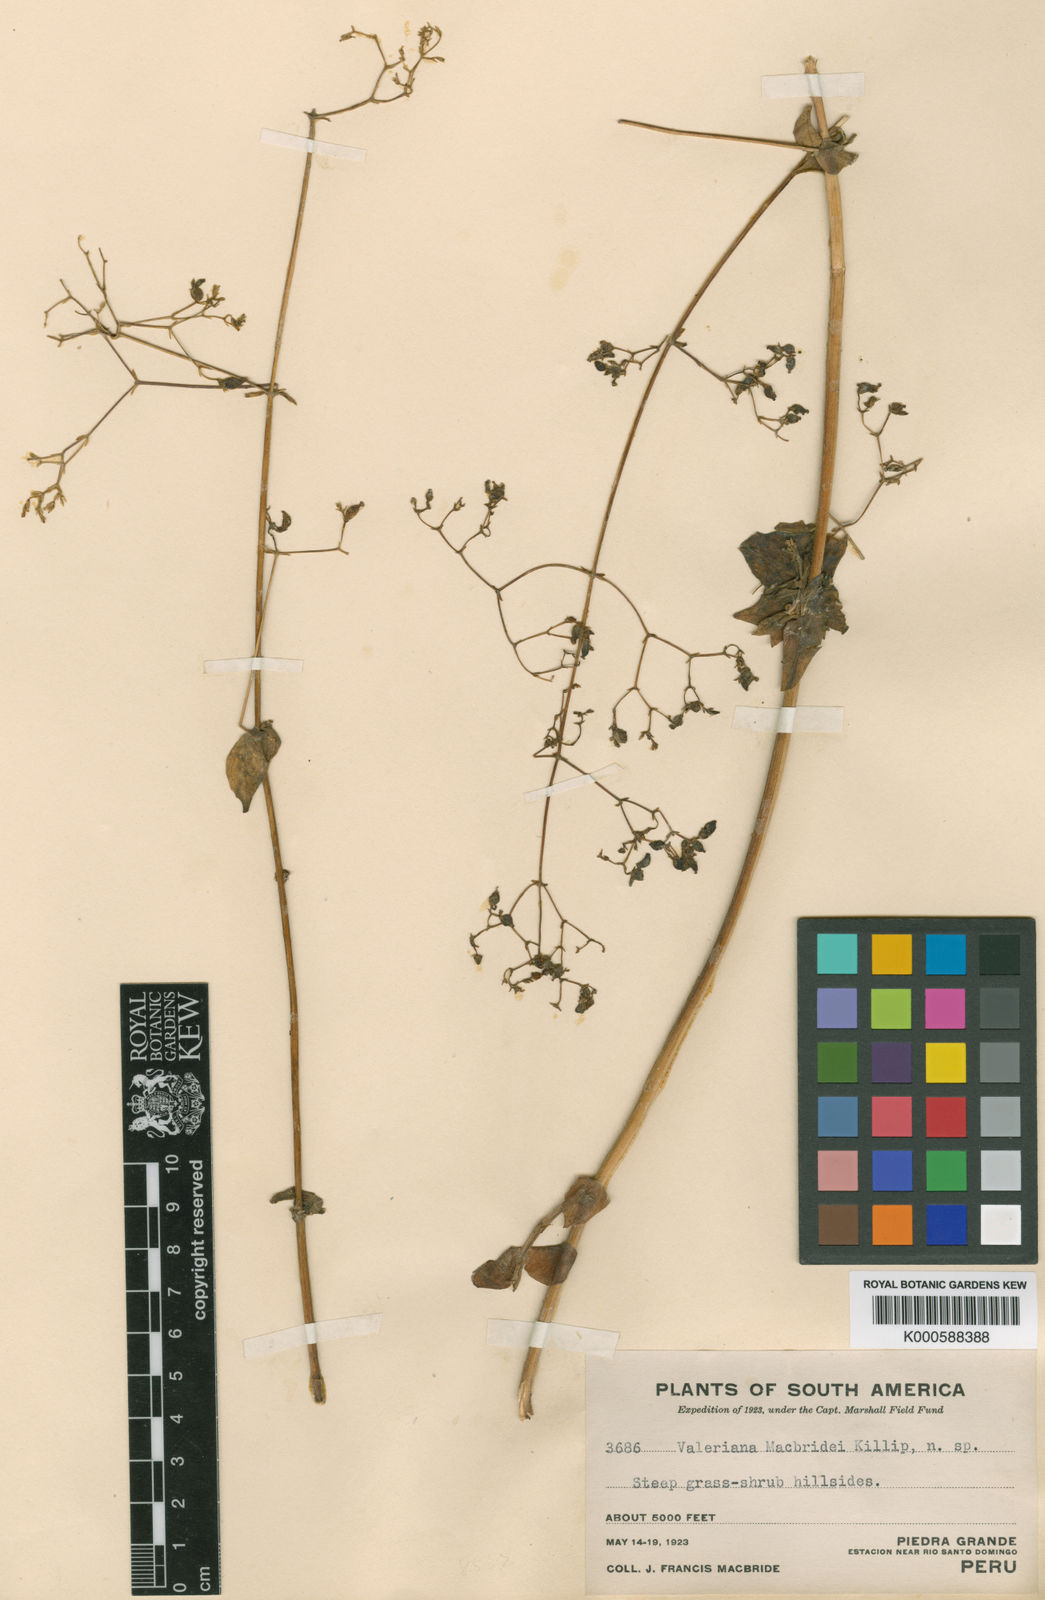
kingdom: Plantae
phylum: Tracheophyta
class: Magnoliopsida
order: Dipsacales
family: Caprifoliaceae
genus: Valeriana
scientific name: Valeriana macbridei
